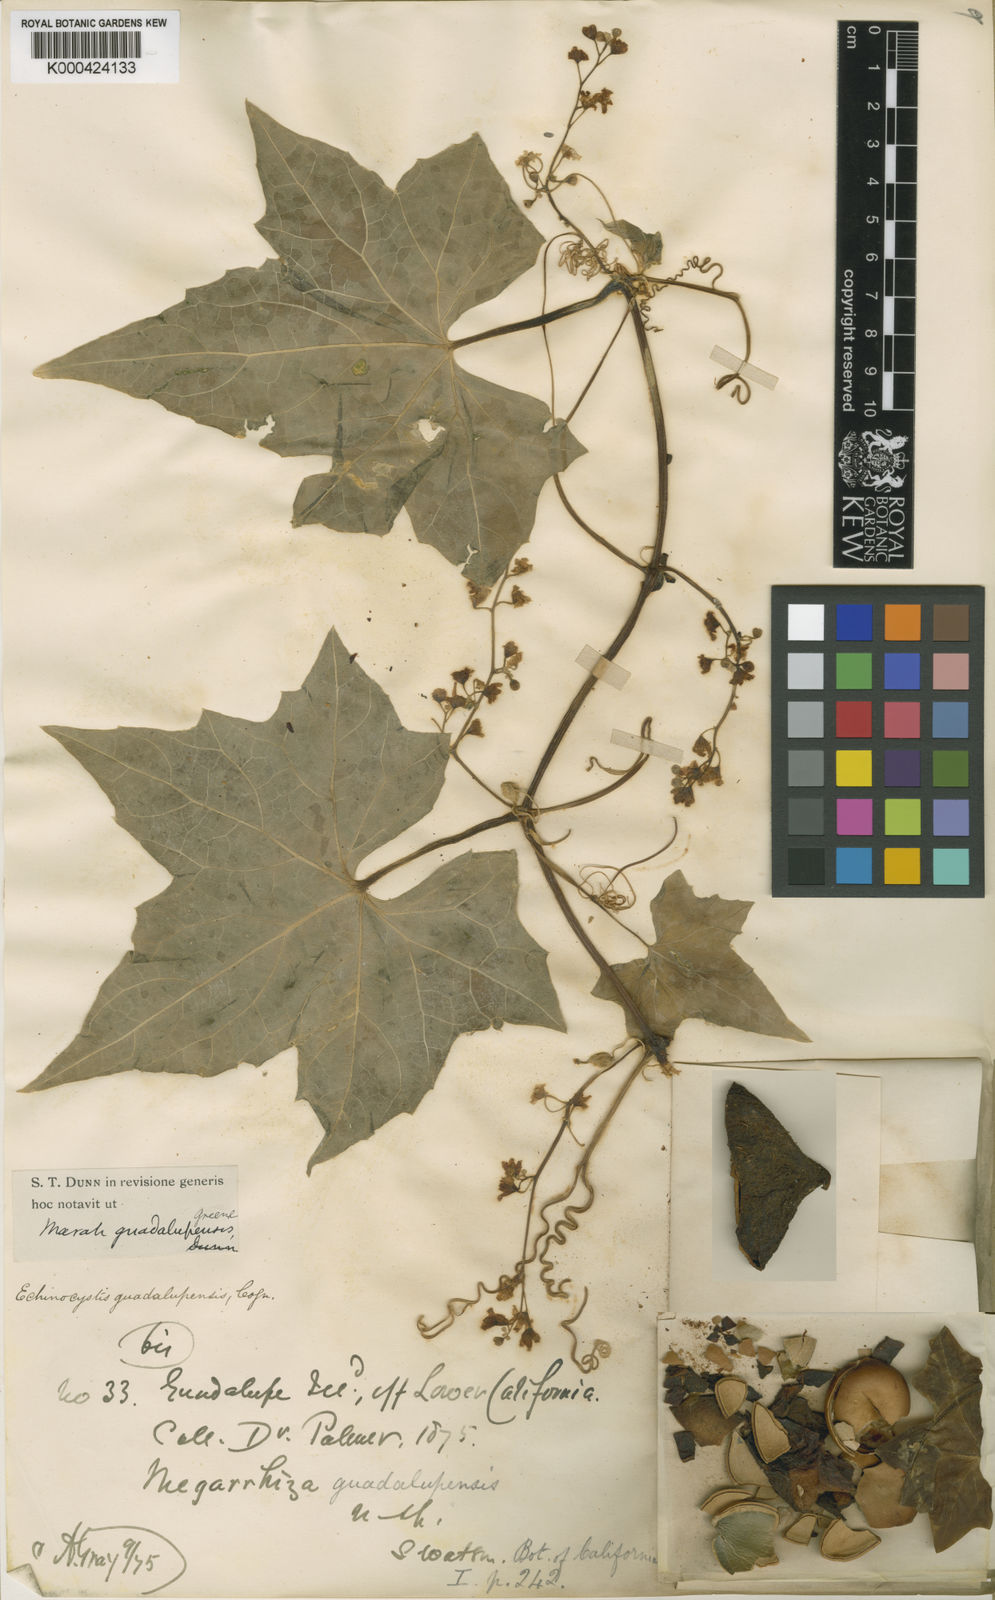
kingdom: Plantae
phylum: Tracheophyta
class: Magnoliopsida
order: Cucurbitales
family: Cucurbitaceae
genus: Marah
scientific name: Marah guadalupensis
